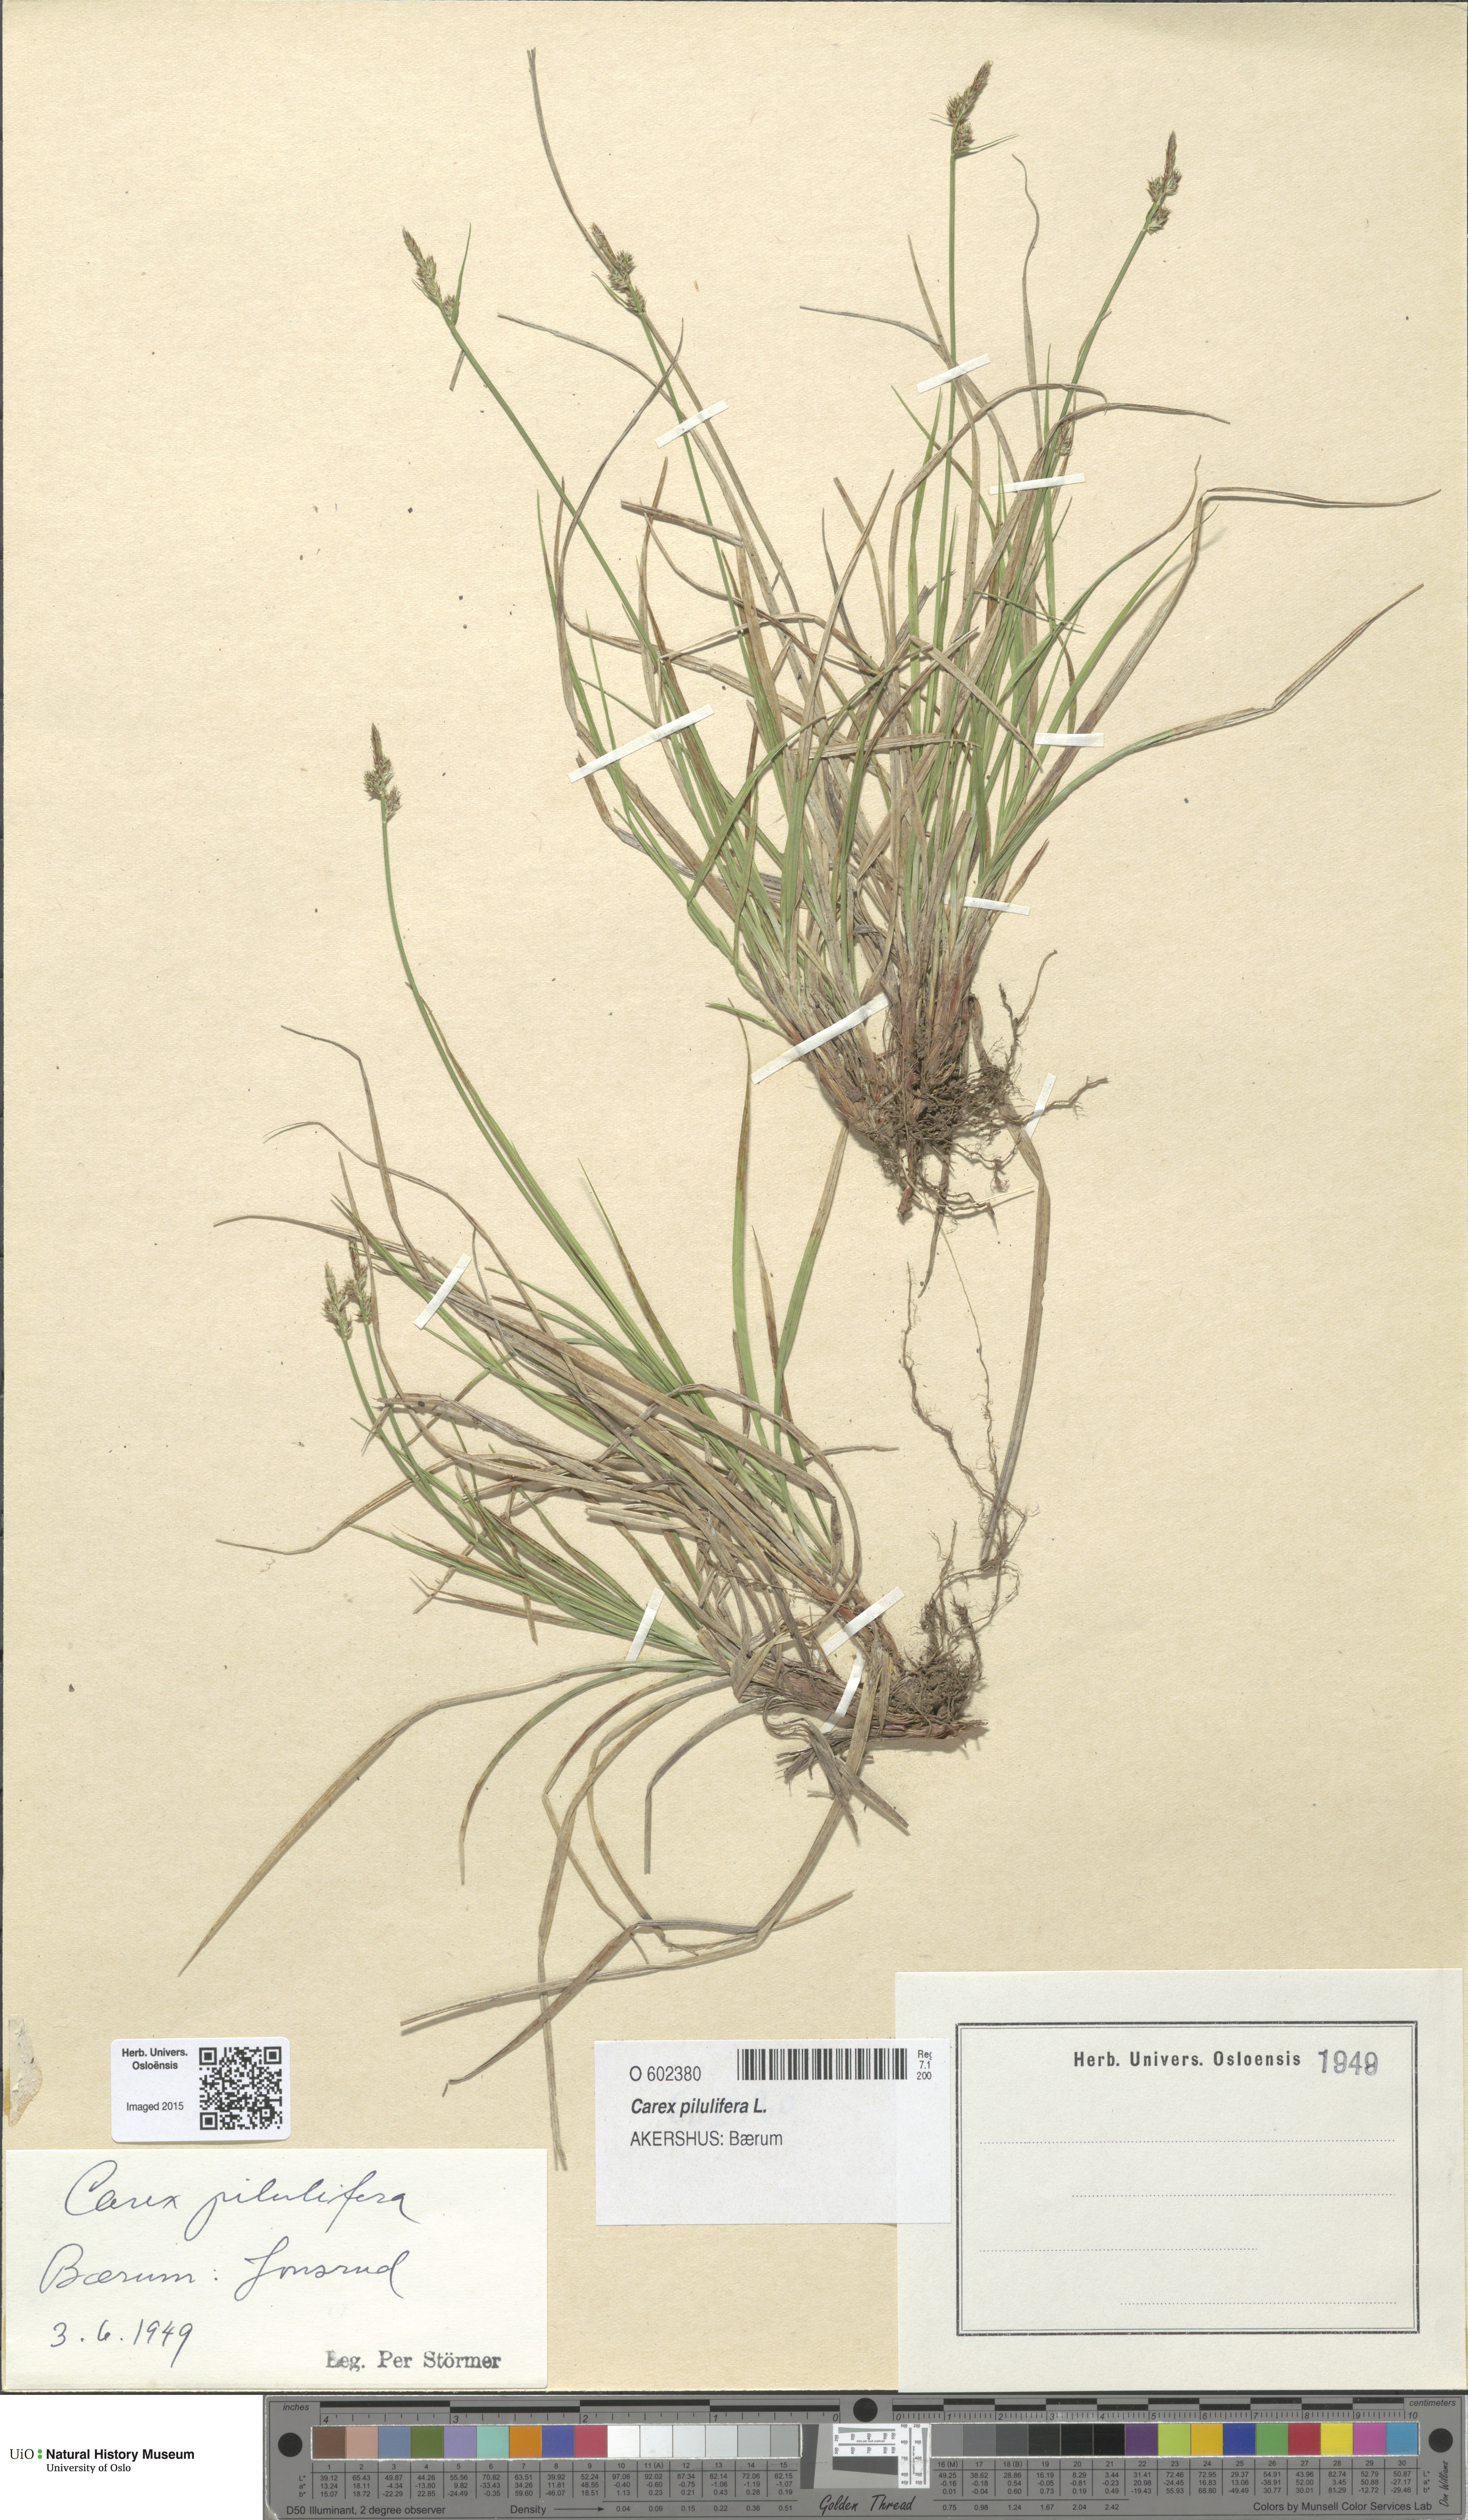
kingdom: Plantae
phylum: Tracheophyta
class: Liliopsida
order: Poales
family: Cyperaceae
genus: Carex
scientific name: Carex pilulifera
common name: Pill sedge
